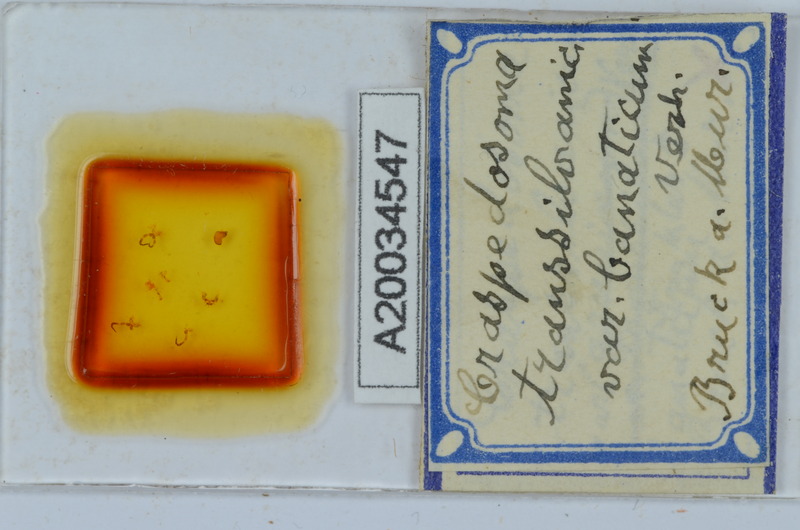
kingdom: Animalia
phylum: Arthropoda
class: Diplopoda
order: Chordeumatida
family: Craspedosomatidae
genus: Craspedosoma
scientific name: Craspedosoma rawlinsii
